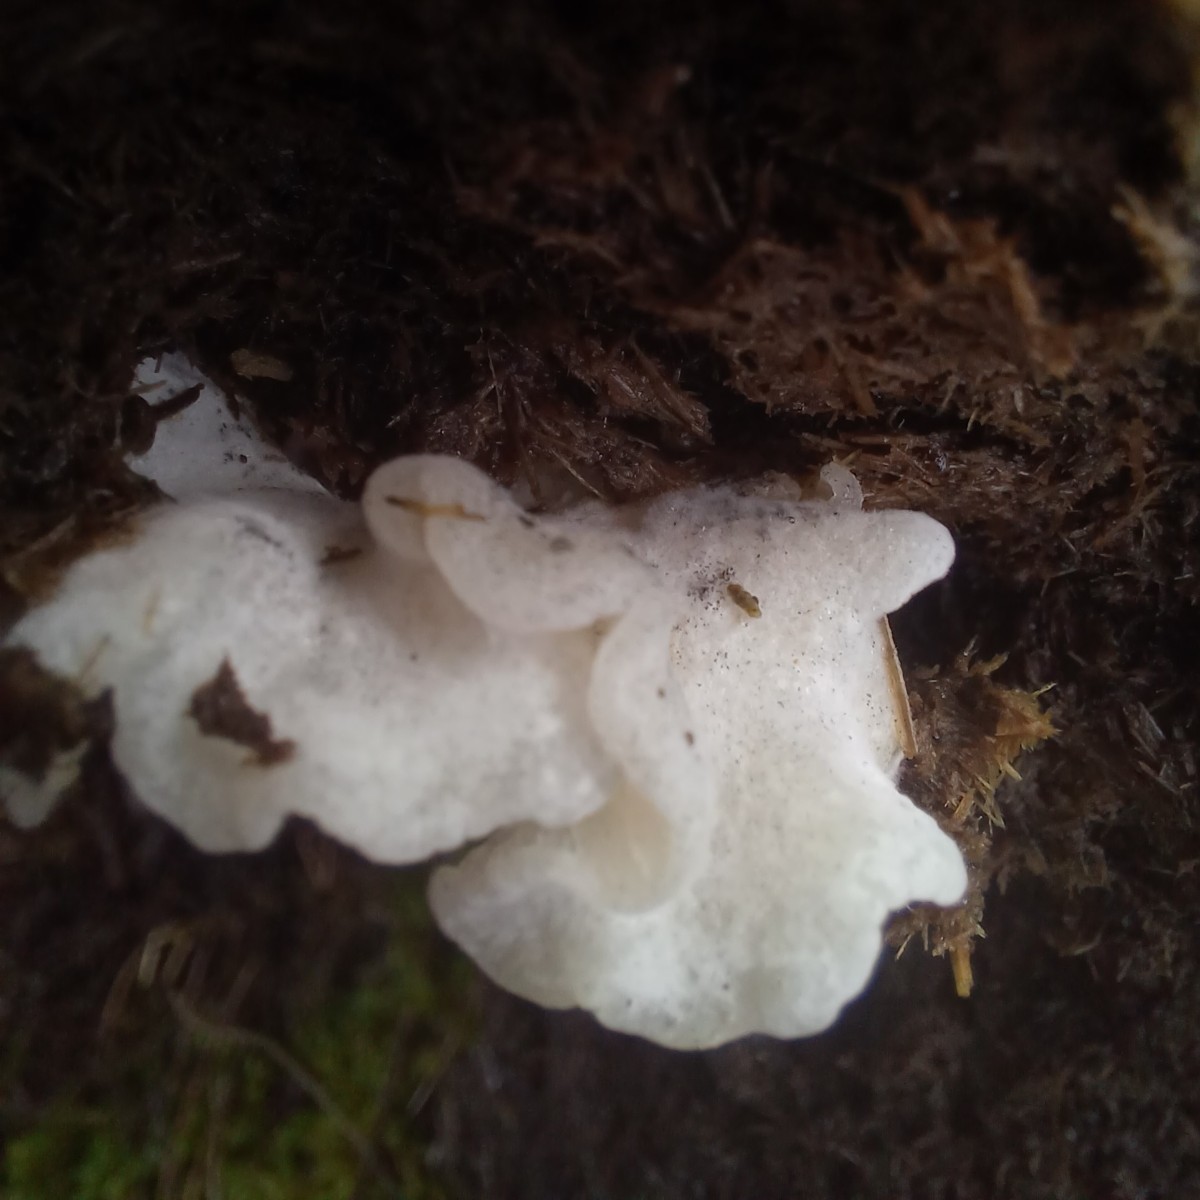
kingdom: Fungi
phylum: Basidiomycota
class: Agaricomycetes
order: Agaricales
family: Entolomataceae
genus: Clitopilus
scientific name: Clitopilus
